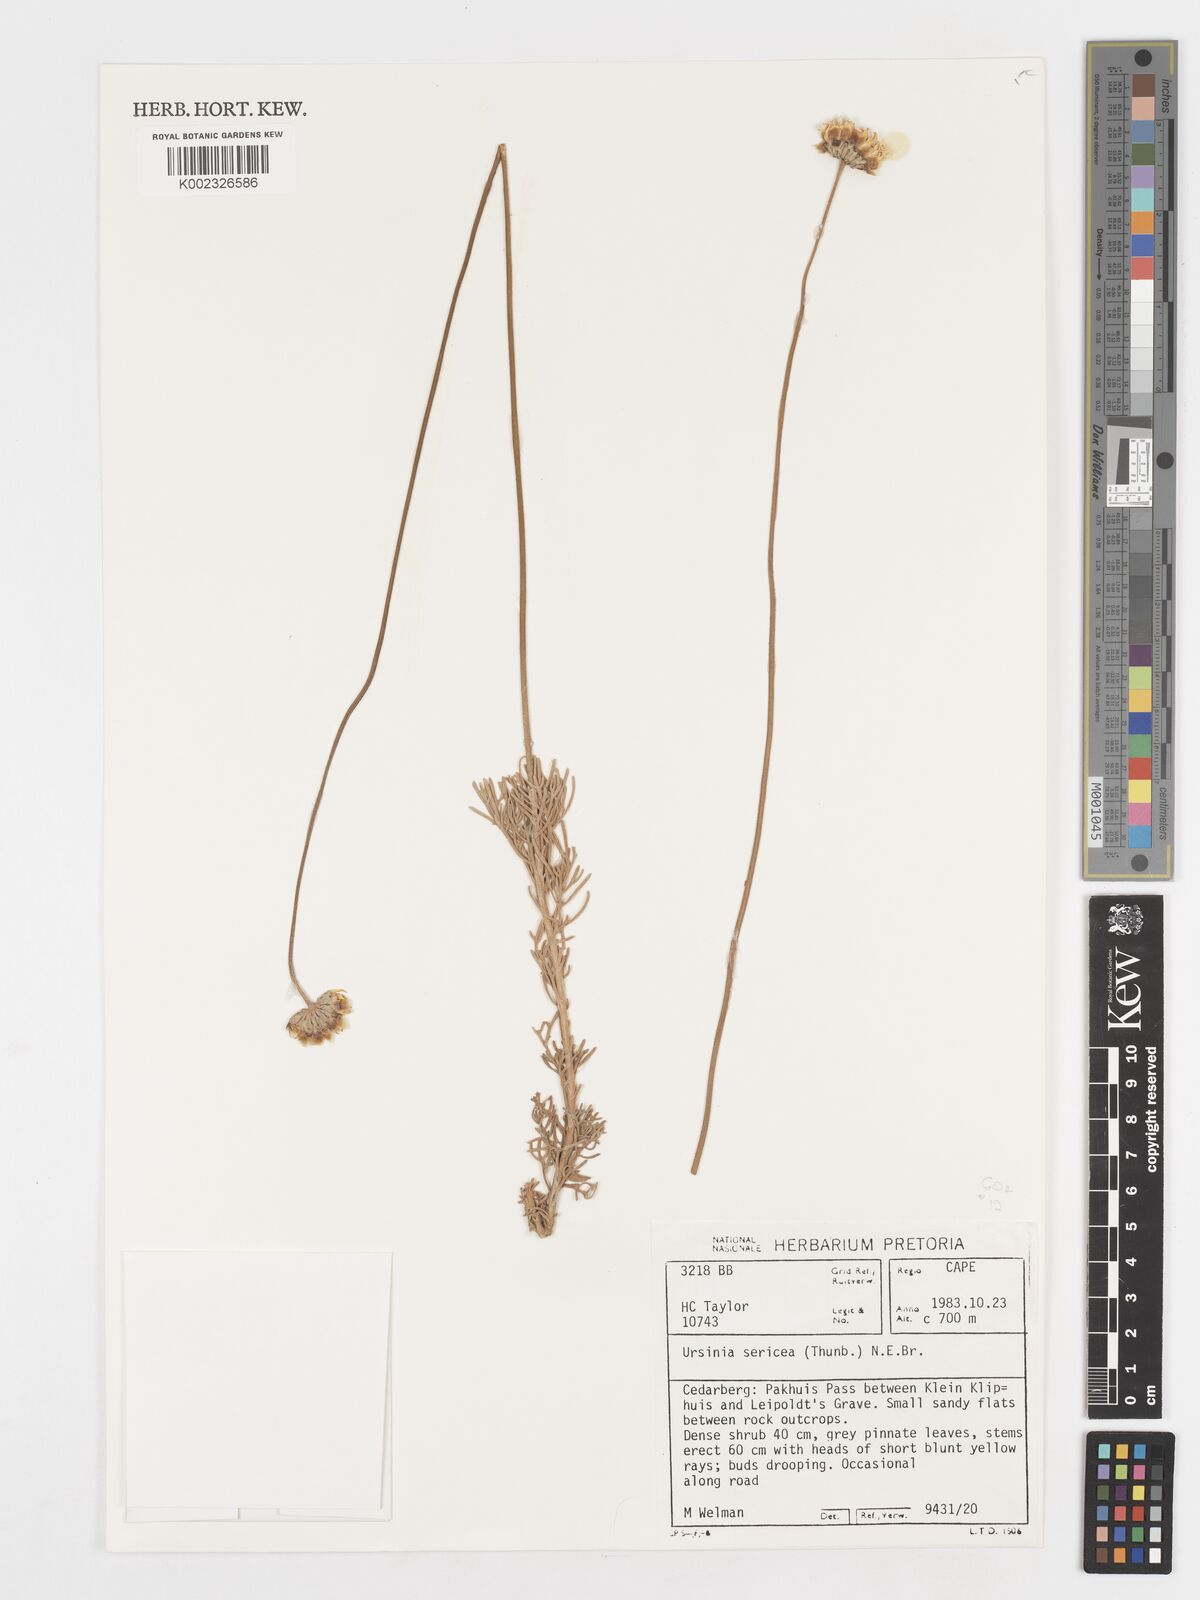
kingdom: Plantae
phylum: Tracheophyta
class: Magnoliopsida
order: Asterales
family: Asteraceae
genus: Ursinia
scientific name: Ursinia sericea
